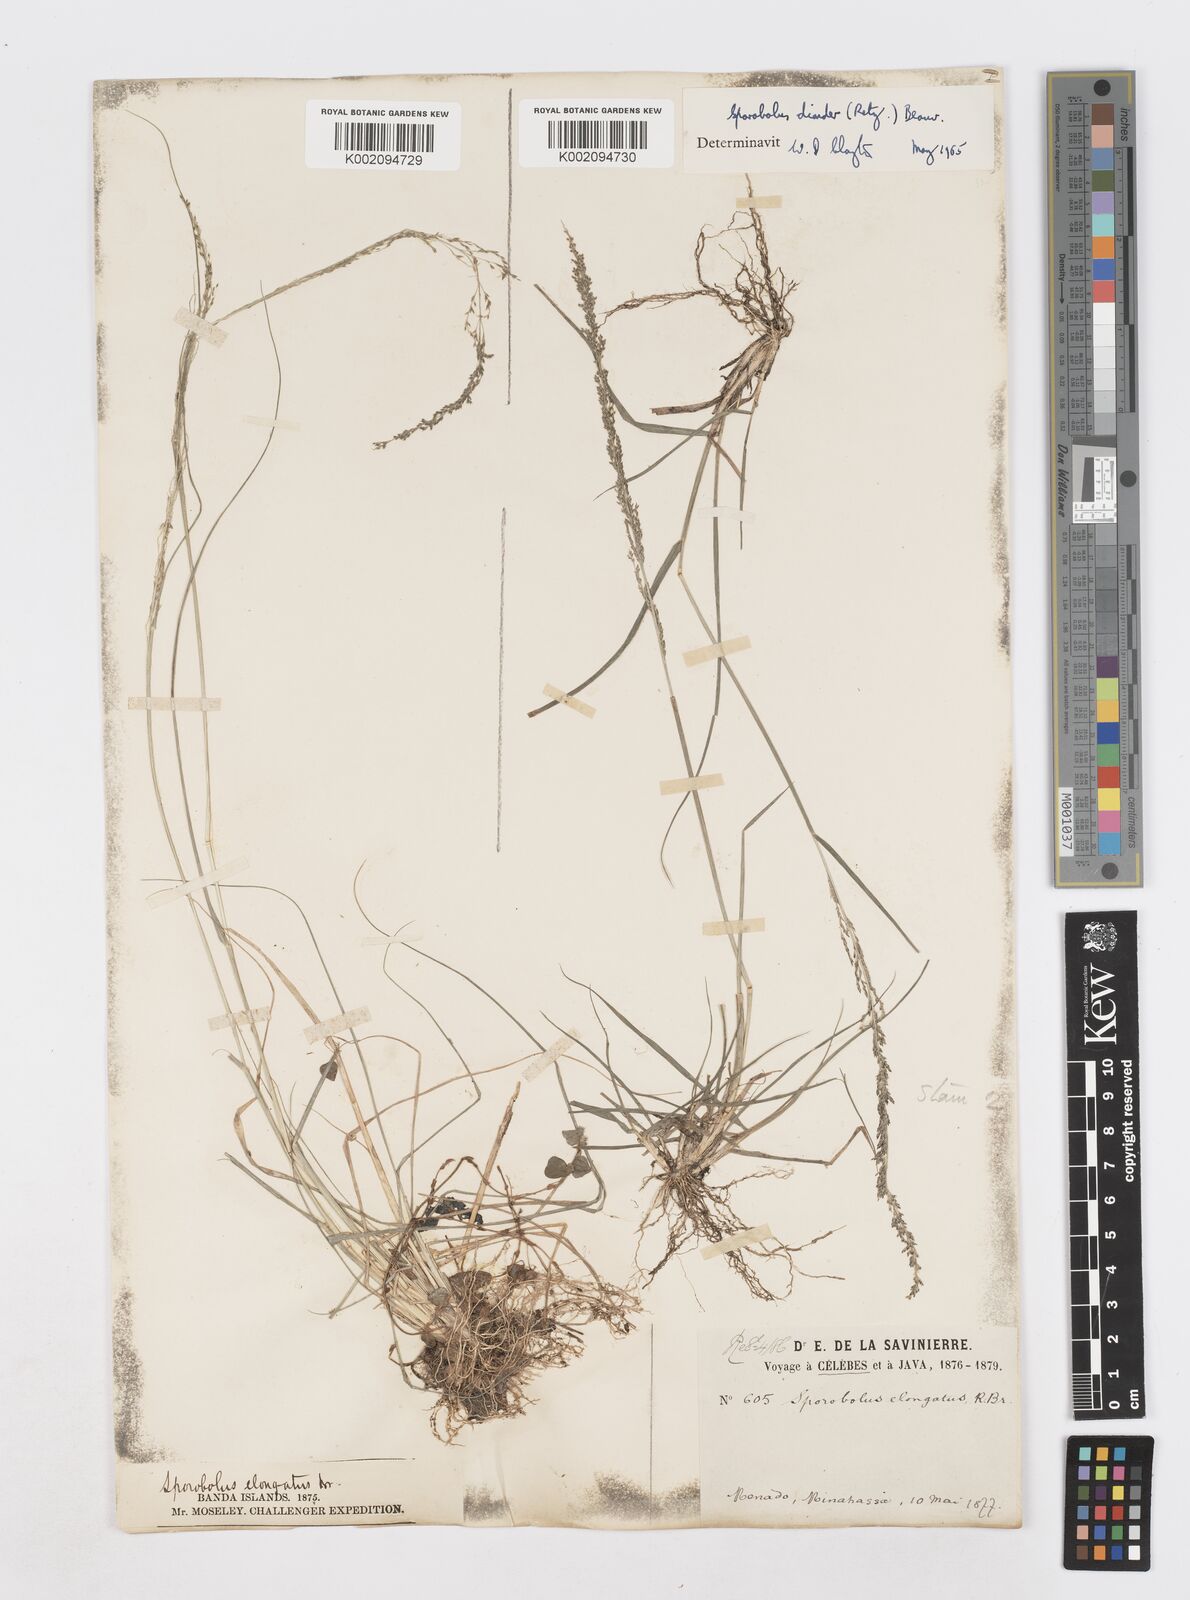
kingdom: Plantae
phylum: Tracheophyta
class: Liliopsida
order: Poales
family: Poaceae
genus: Sporobolus
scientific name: Sporobolus diandrus
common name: Tussock dropseed
